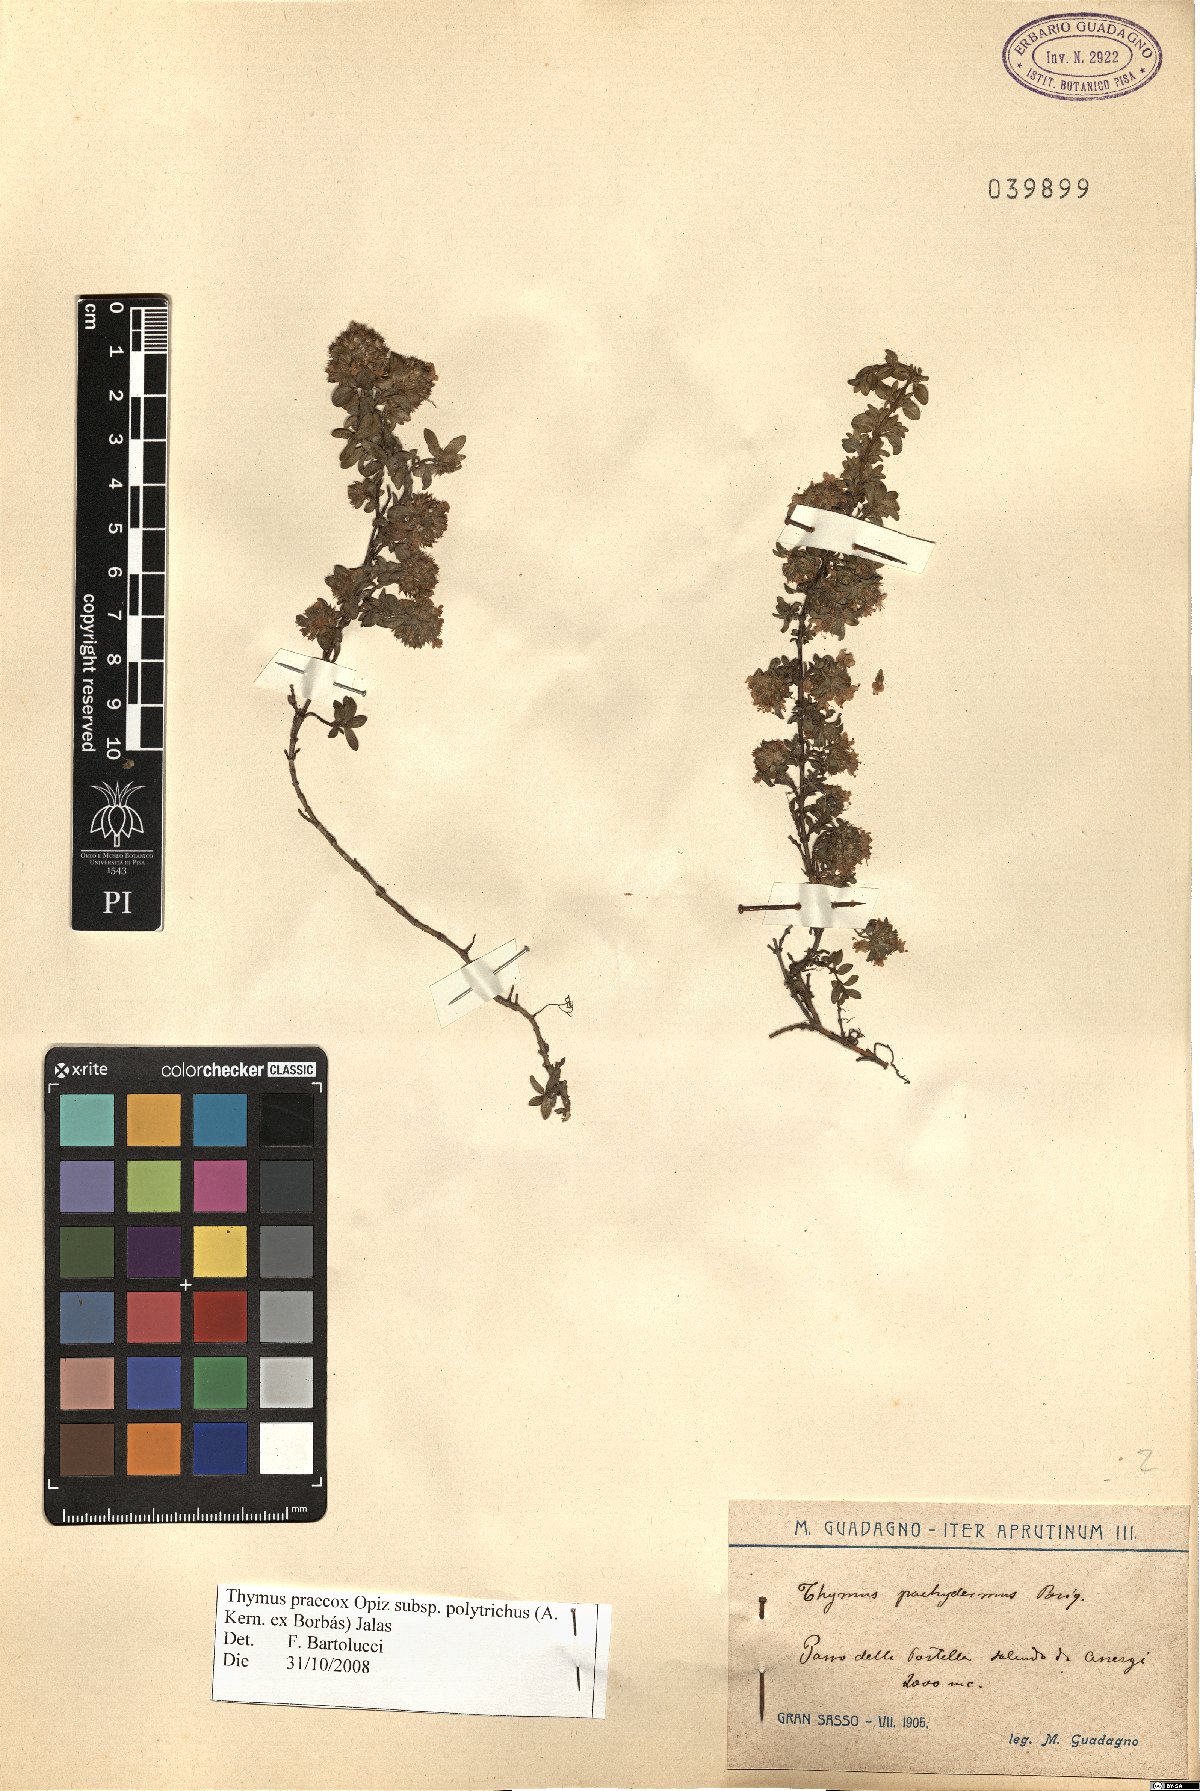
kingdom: Plantae
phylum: Tracheophyta
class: Magnoliopsida
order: Lamiales
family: Lamiaceae
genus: Thymus
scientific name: Thymus praecox
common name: Wild thyme
